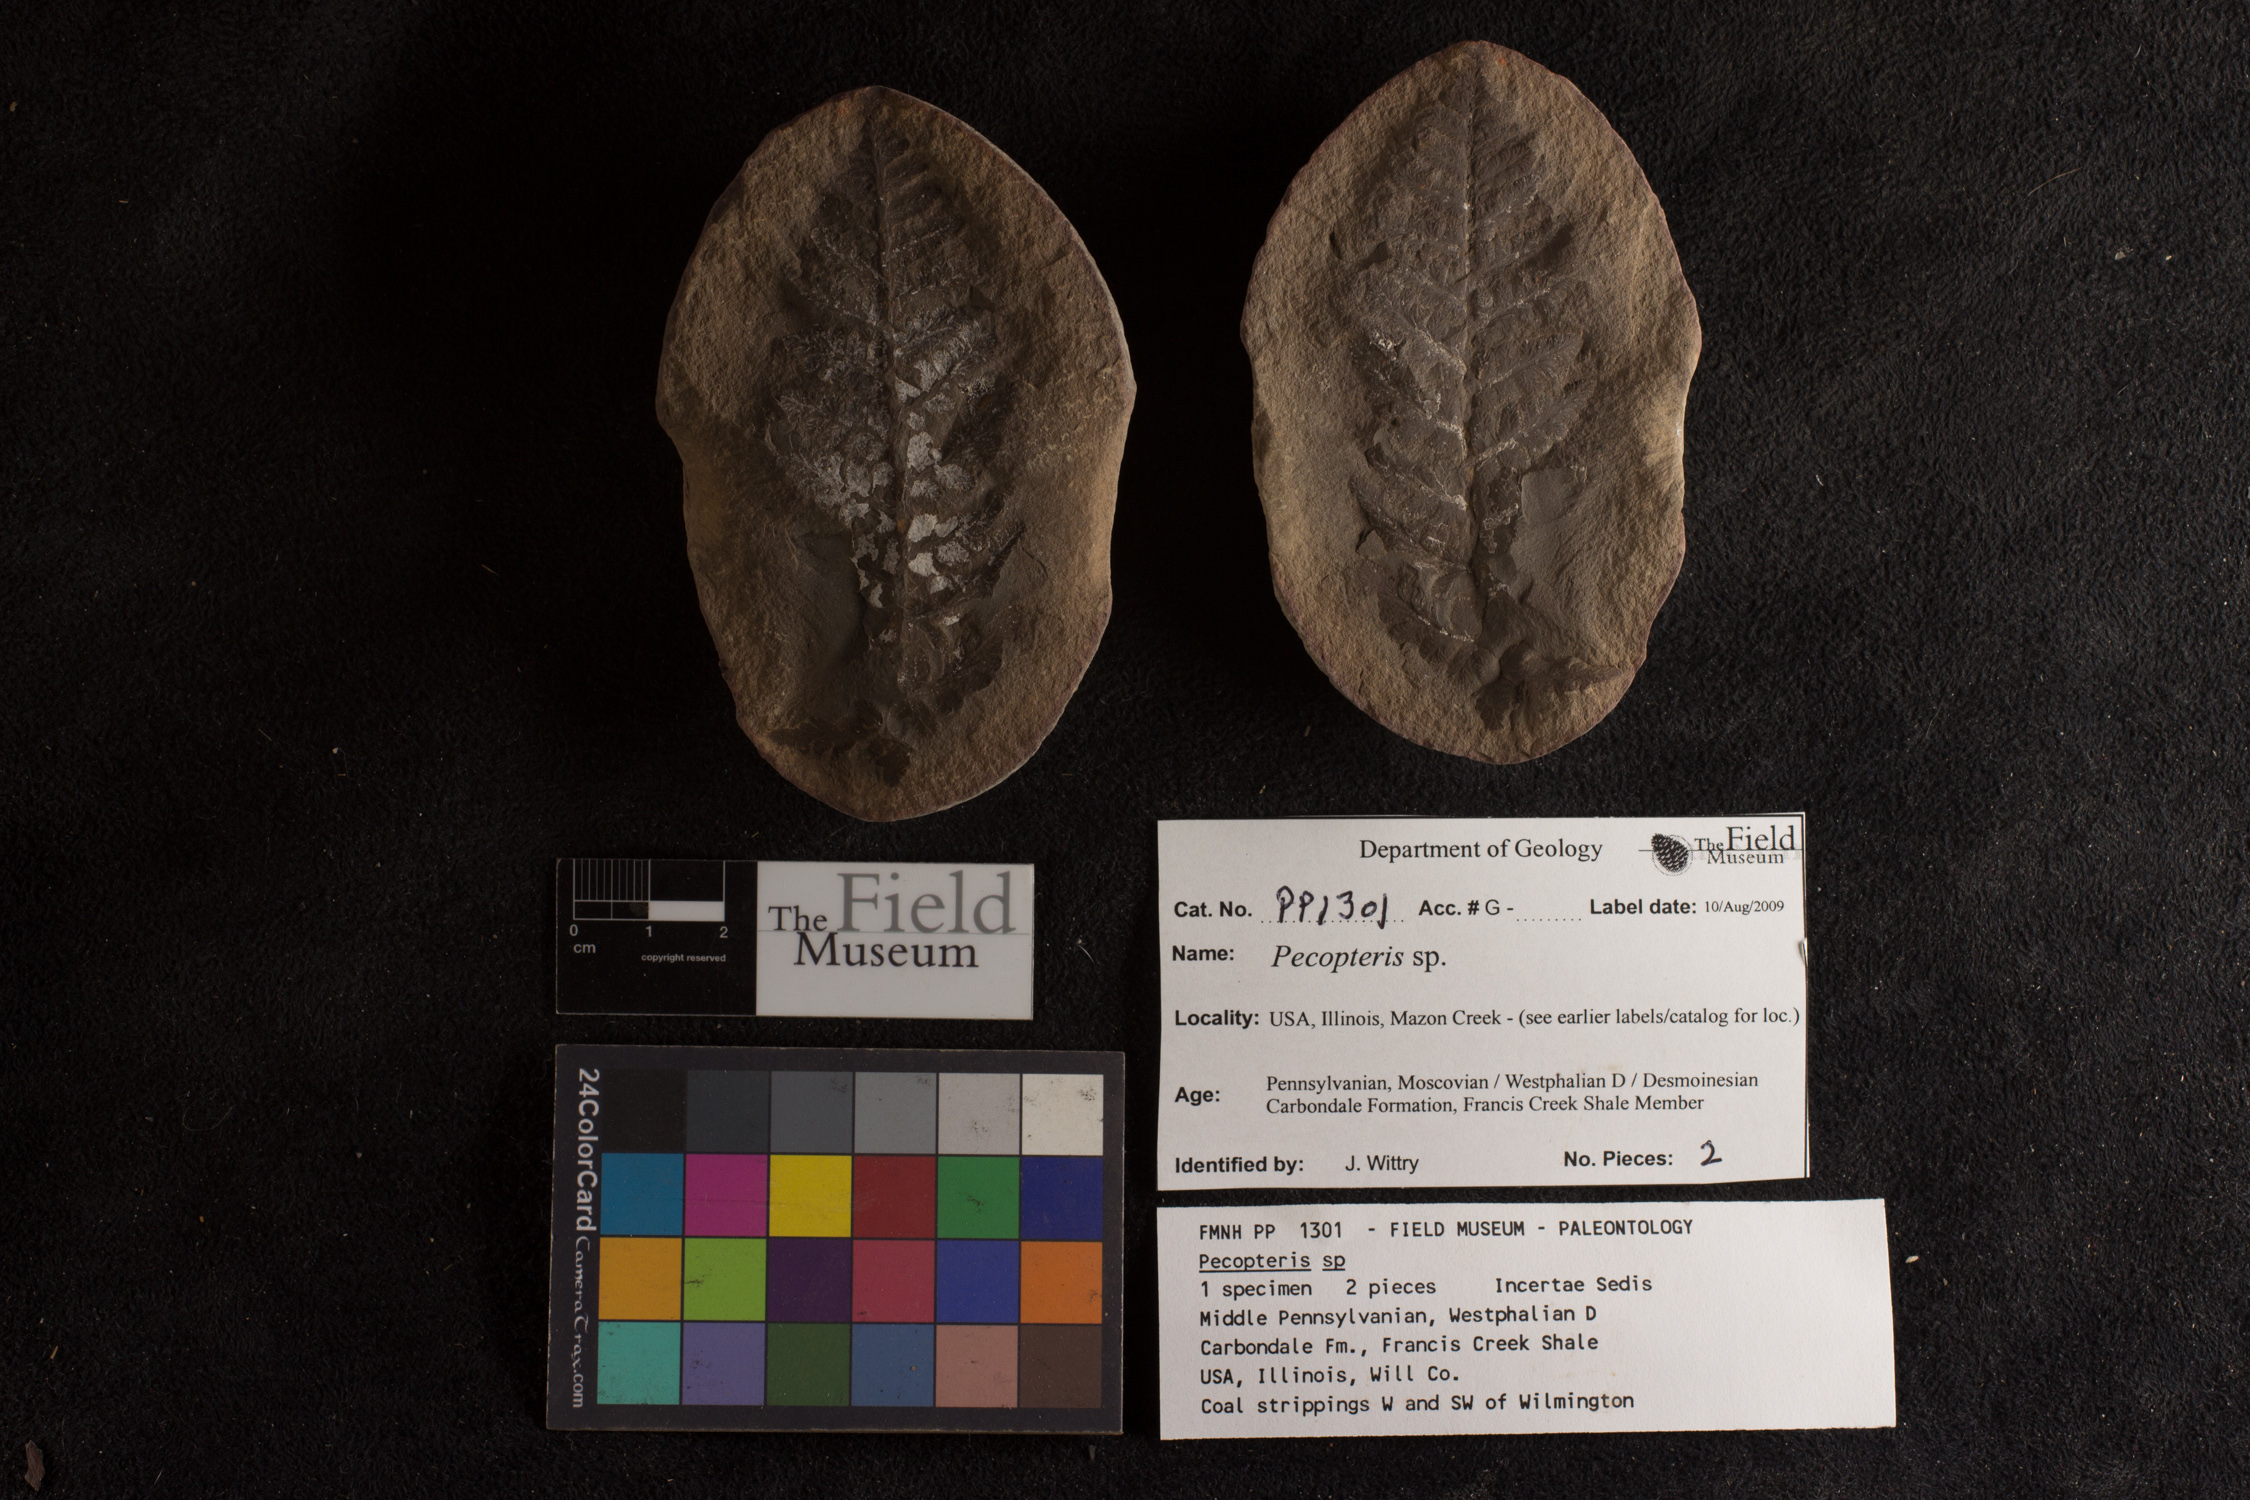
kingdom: Plantae
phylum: Tracheophyta
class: Polypodiopsida
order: Marattiales
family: Asterothecaceae
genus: Pecopteris
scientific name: Pecopteris
